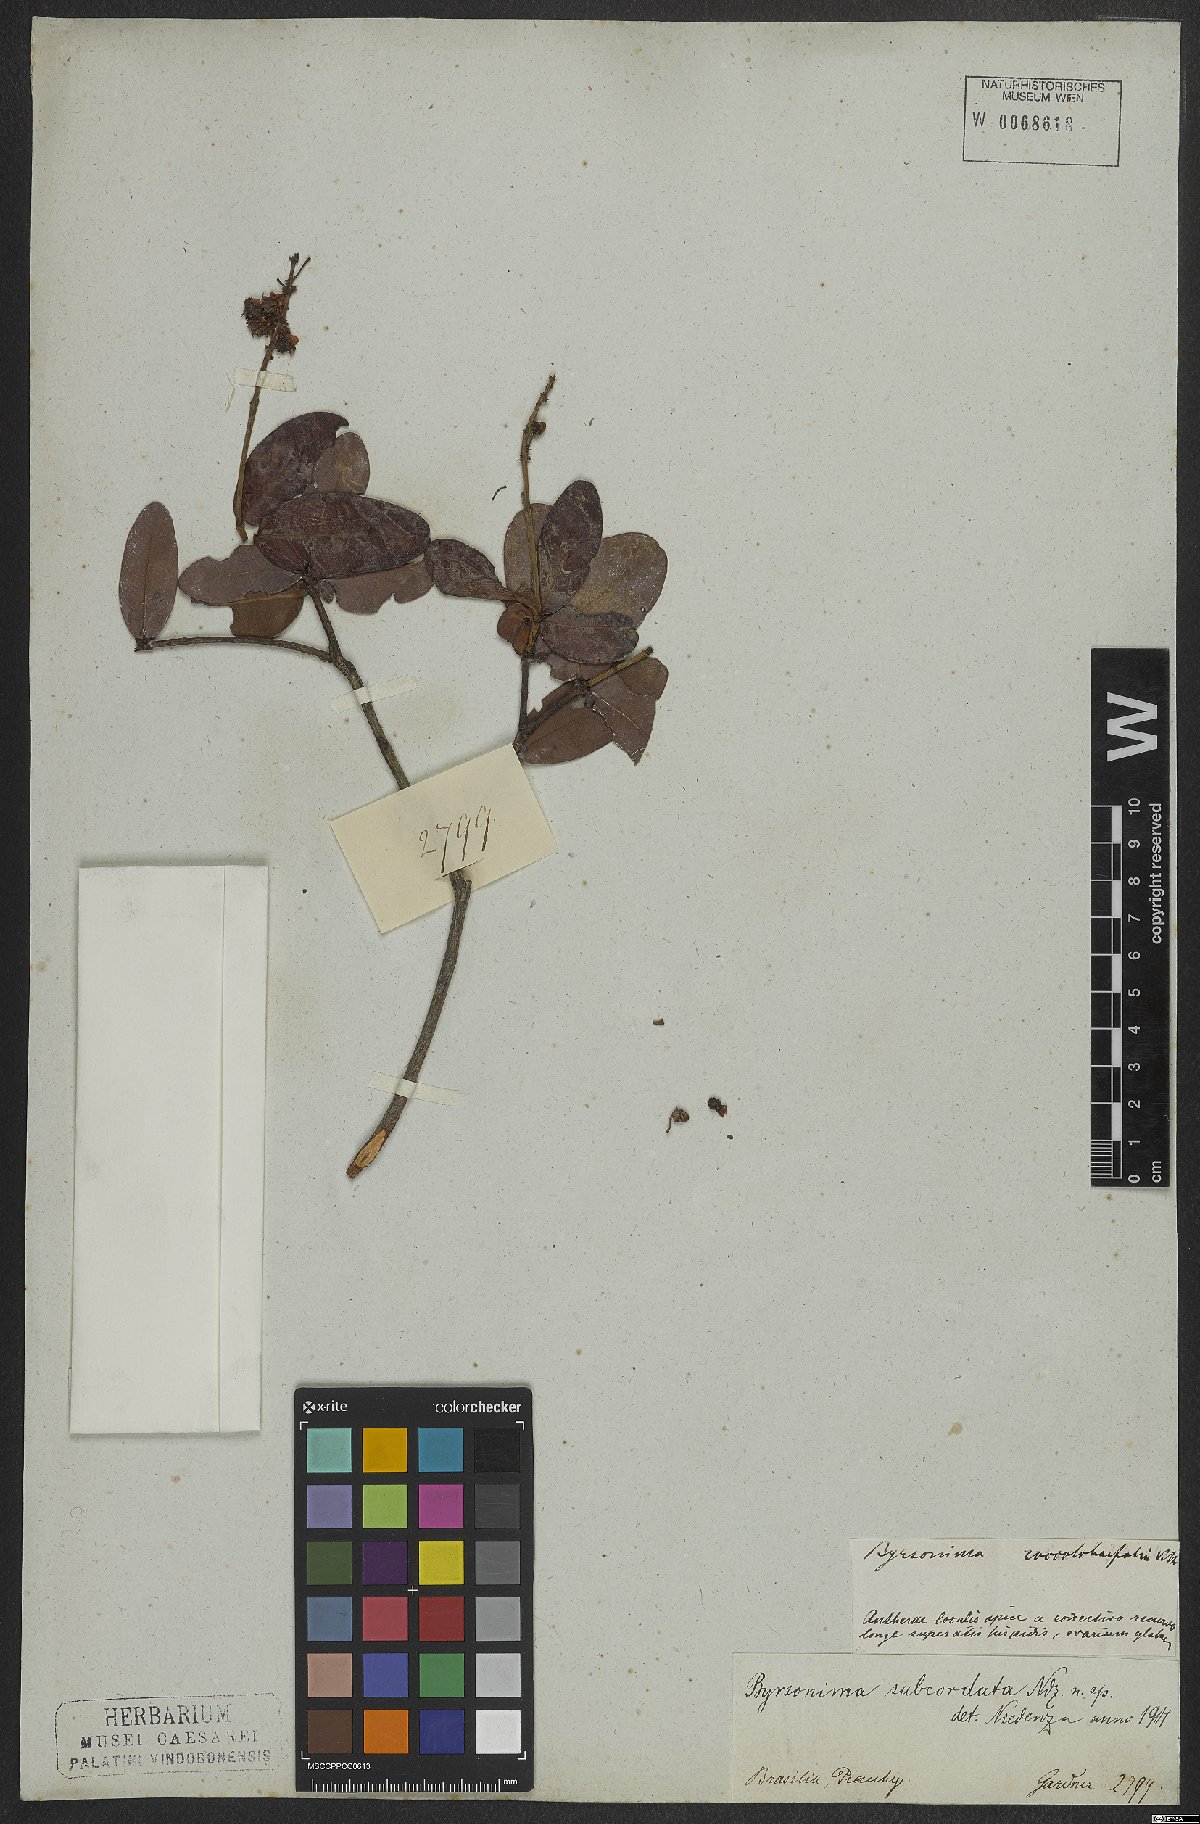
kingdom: Plantae
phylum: Tracheophyta
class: Magnoliopsida
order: Malpighiales
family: Malpighiaceae
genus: Byrsonima
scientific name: Byrsonima subcordata
